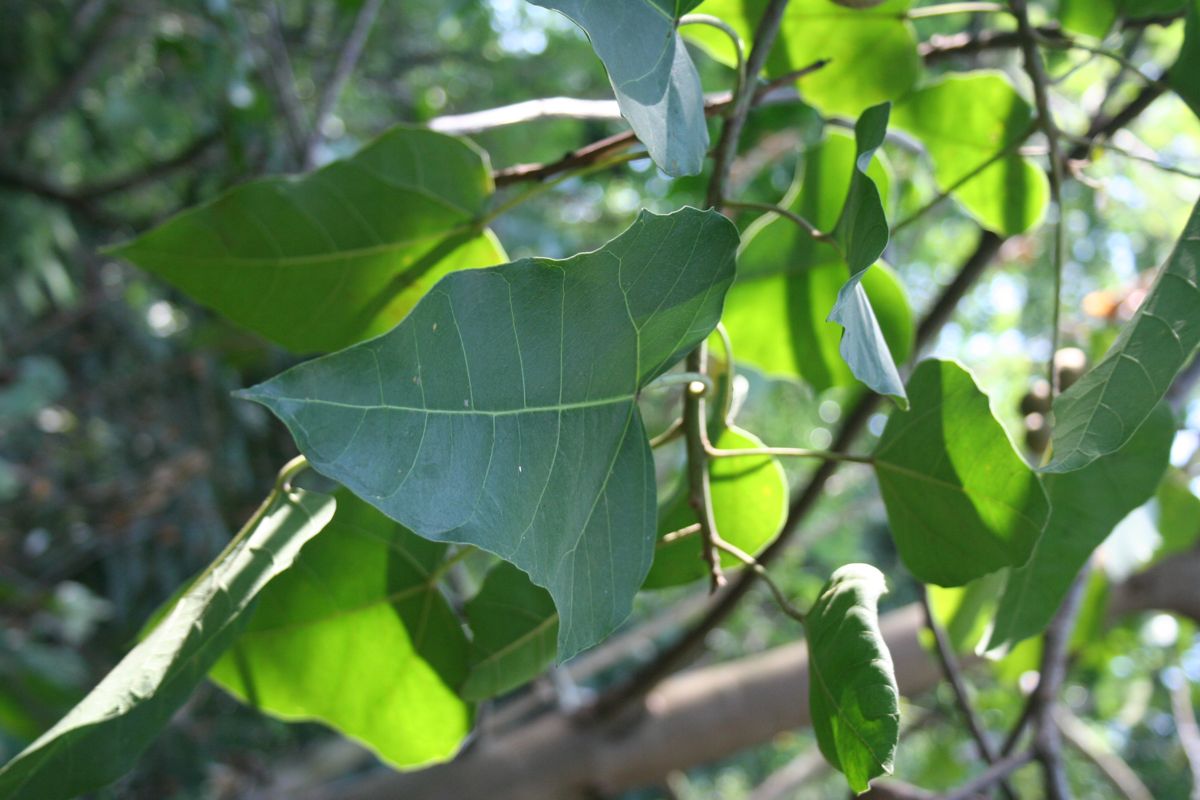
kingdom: Plantae
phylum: Tracheophyta
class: Magnoliopsida
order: Malpighiales
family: Euphorbiaceae
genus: Aleurites
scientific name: Aleurites moluccanus
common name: Candlenut tree
